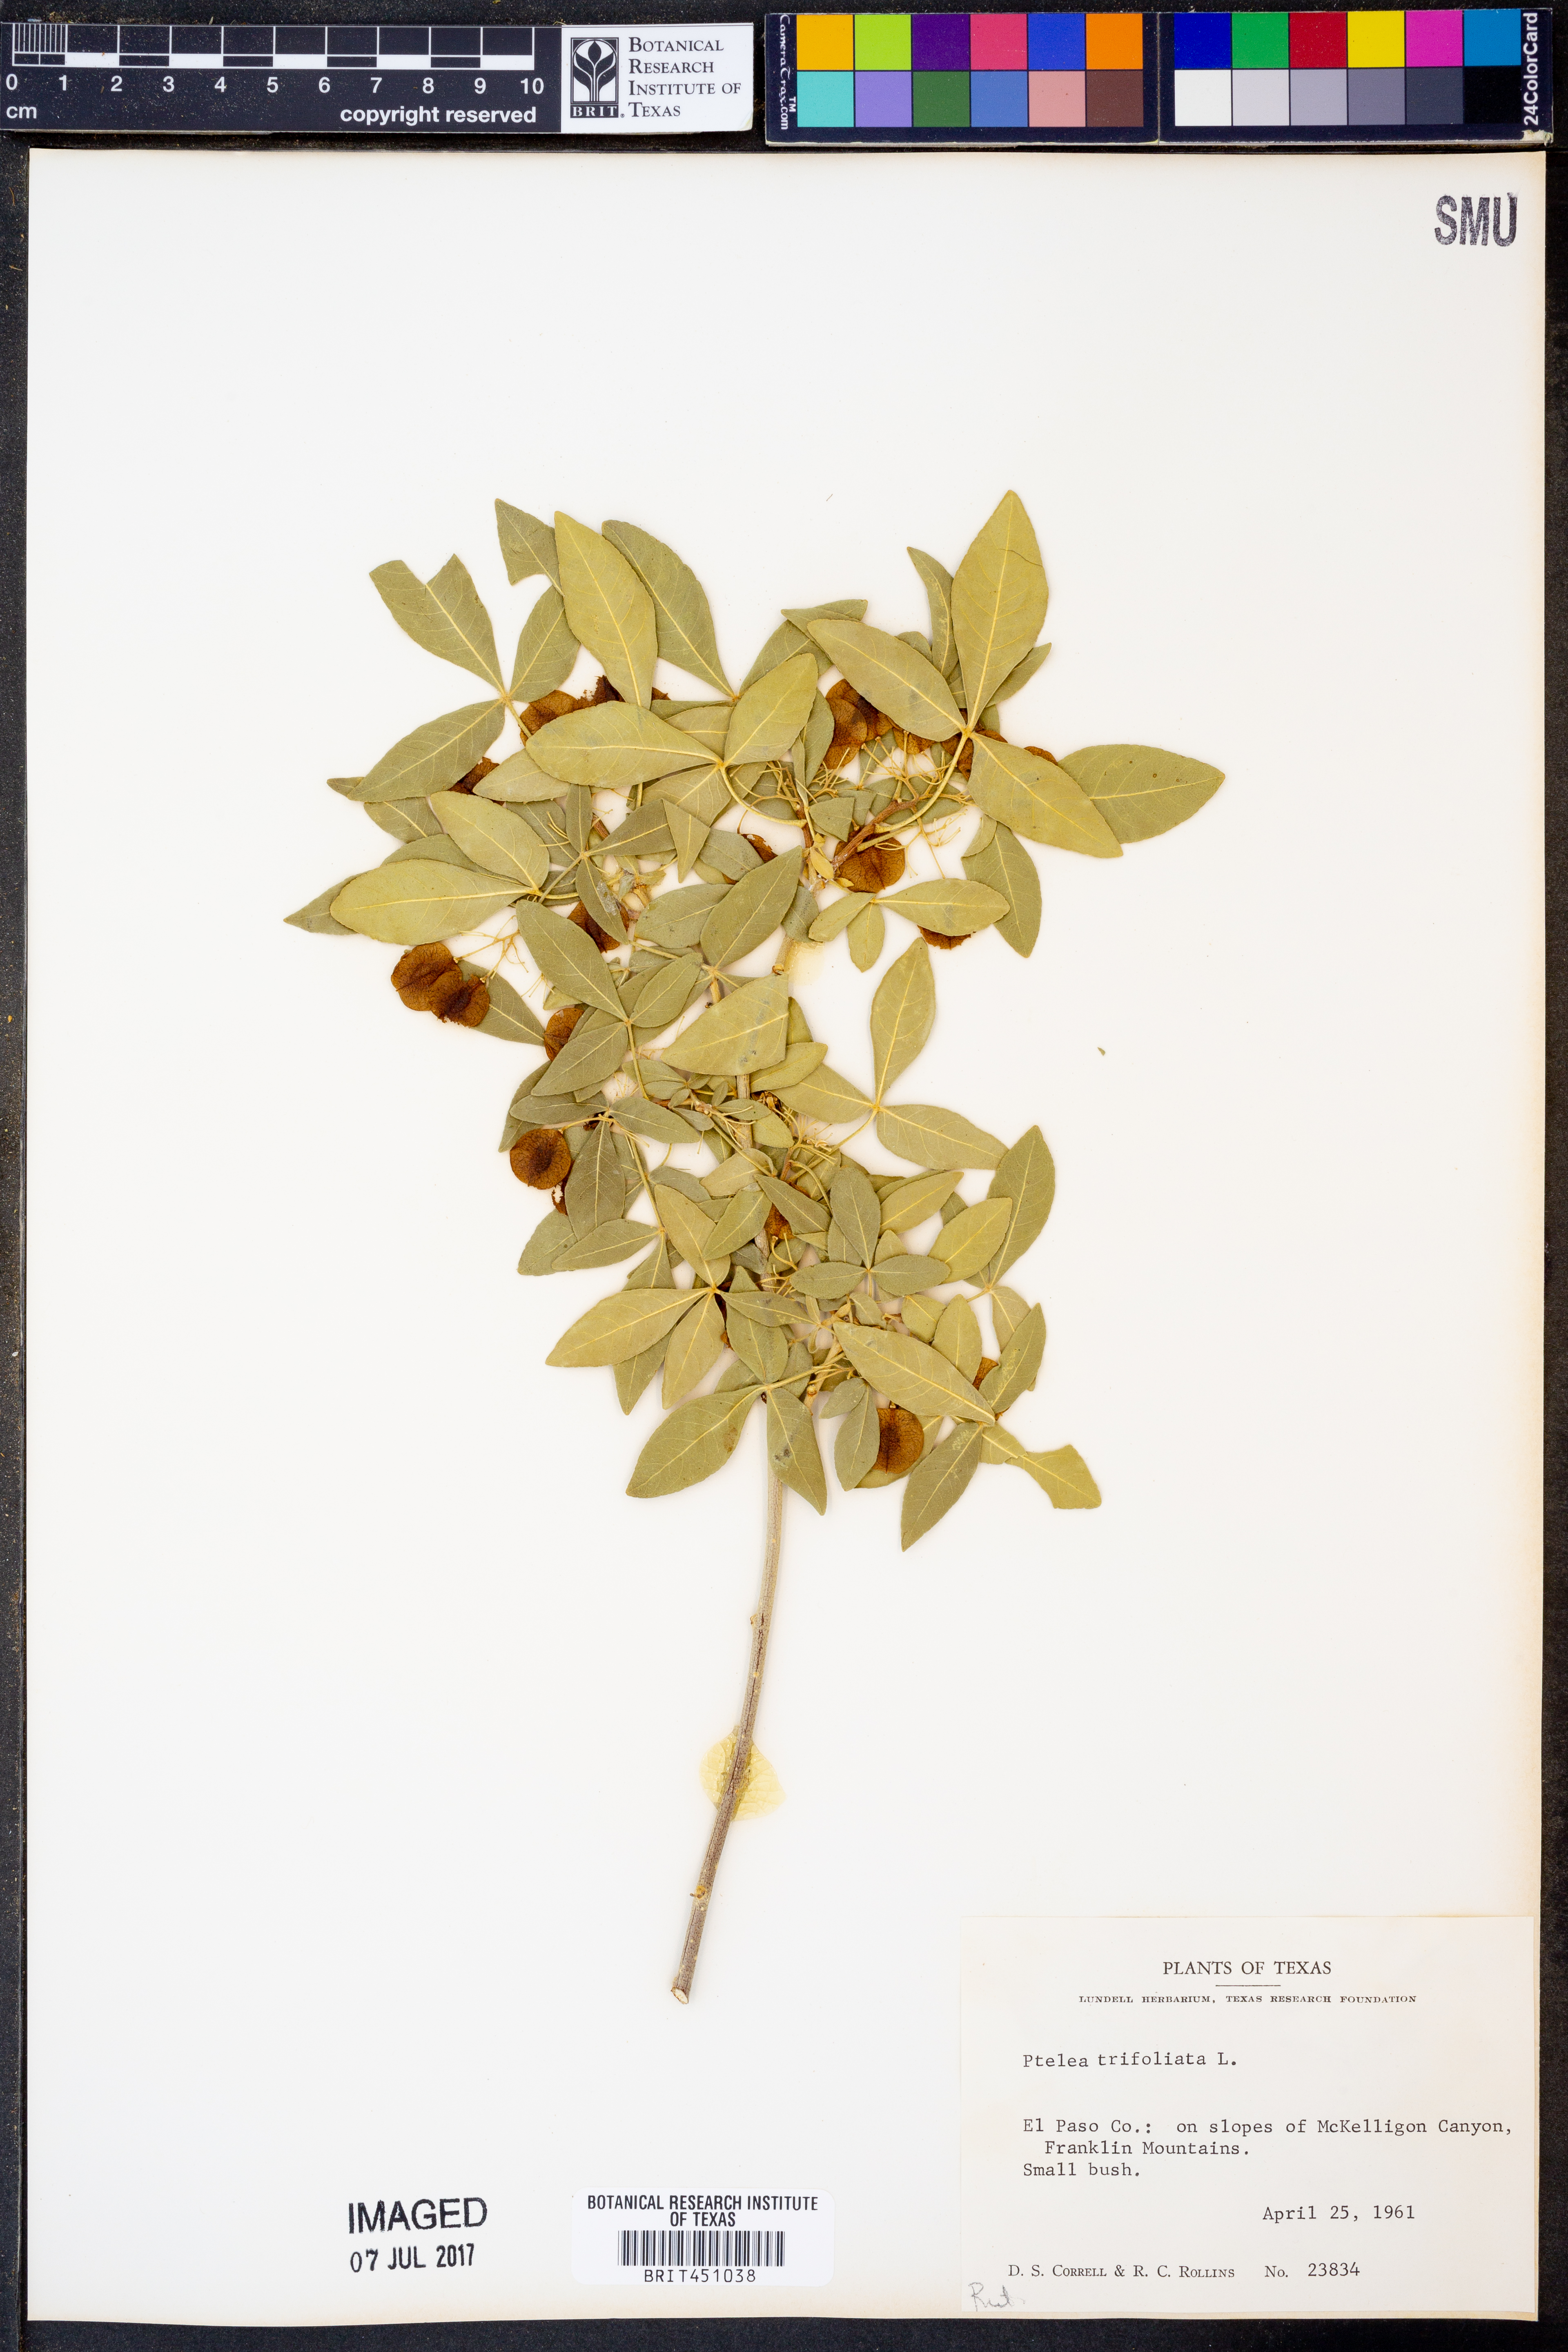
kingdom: Plantae
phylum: Tracheophyta
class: Magnoliopsida
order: Sapindales
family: Rutaceae
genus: Ptelea
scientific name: Ptelea trifoliata
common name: Common hop-tree
